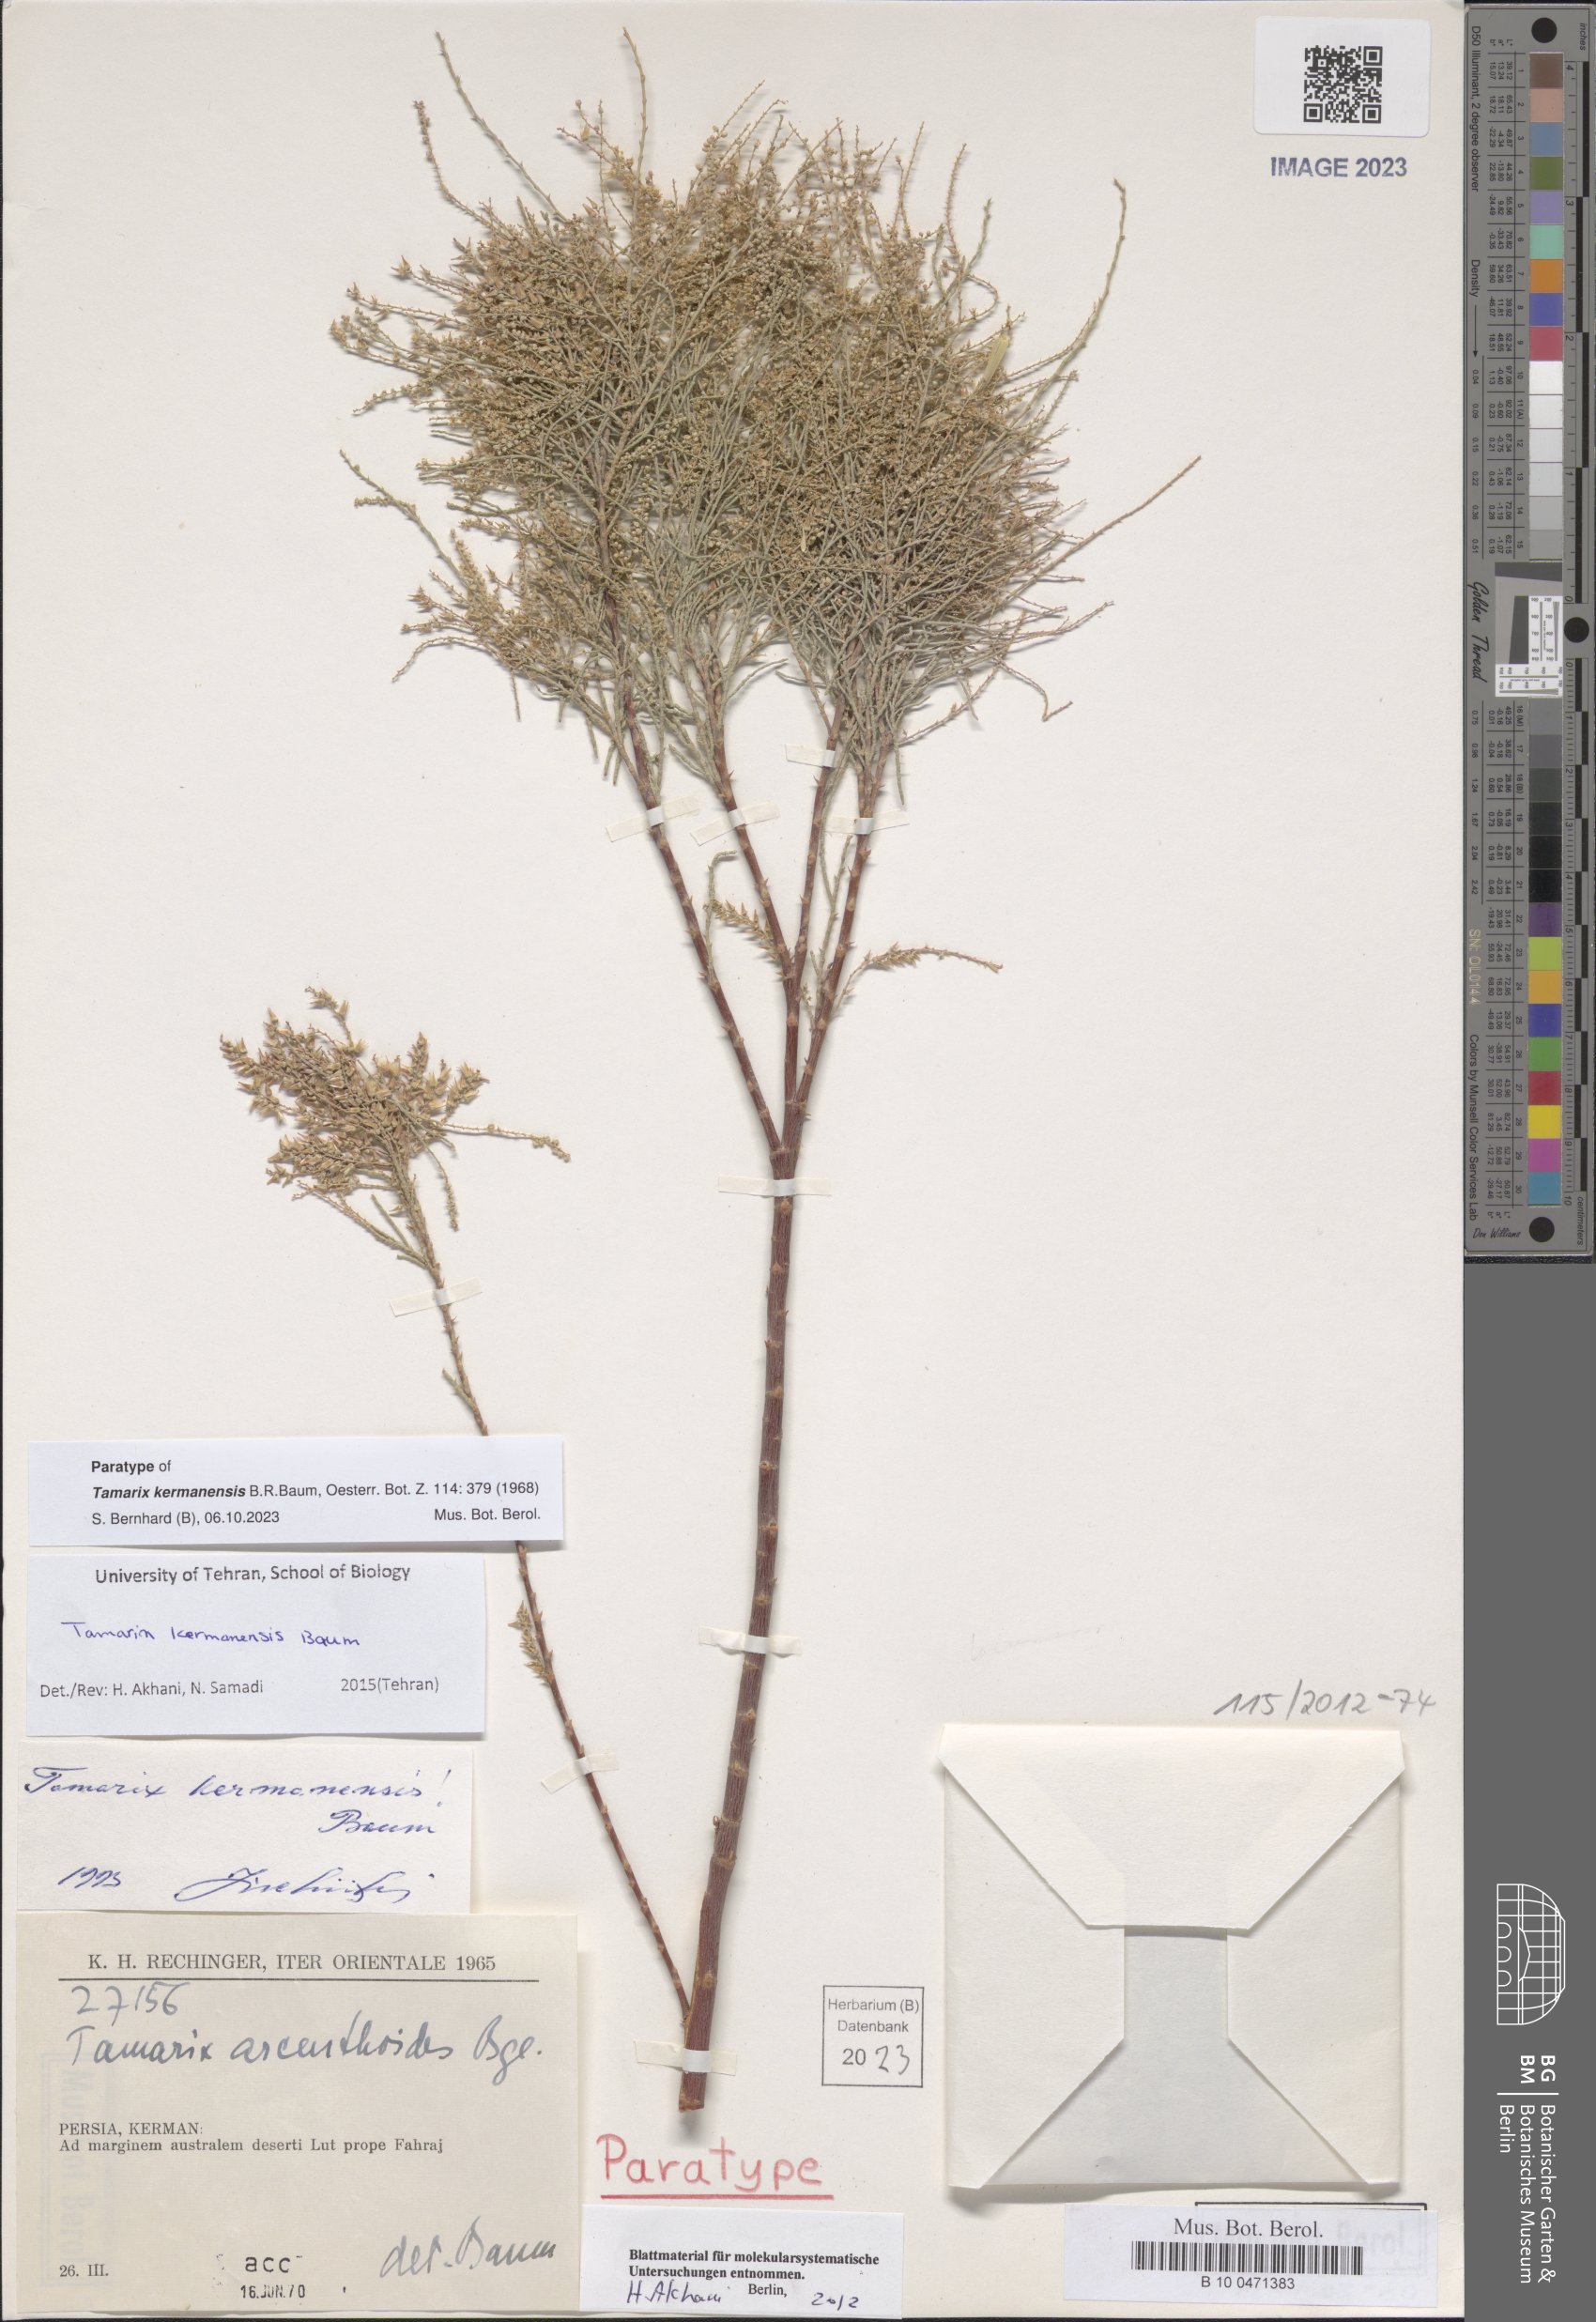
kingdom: Plantae
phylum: Tracheophyta
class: Magnoliopsida
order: Caryophyllales
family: Tamaricaceae
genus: Tamarix
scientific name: Tamarix kermanensis
